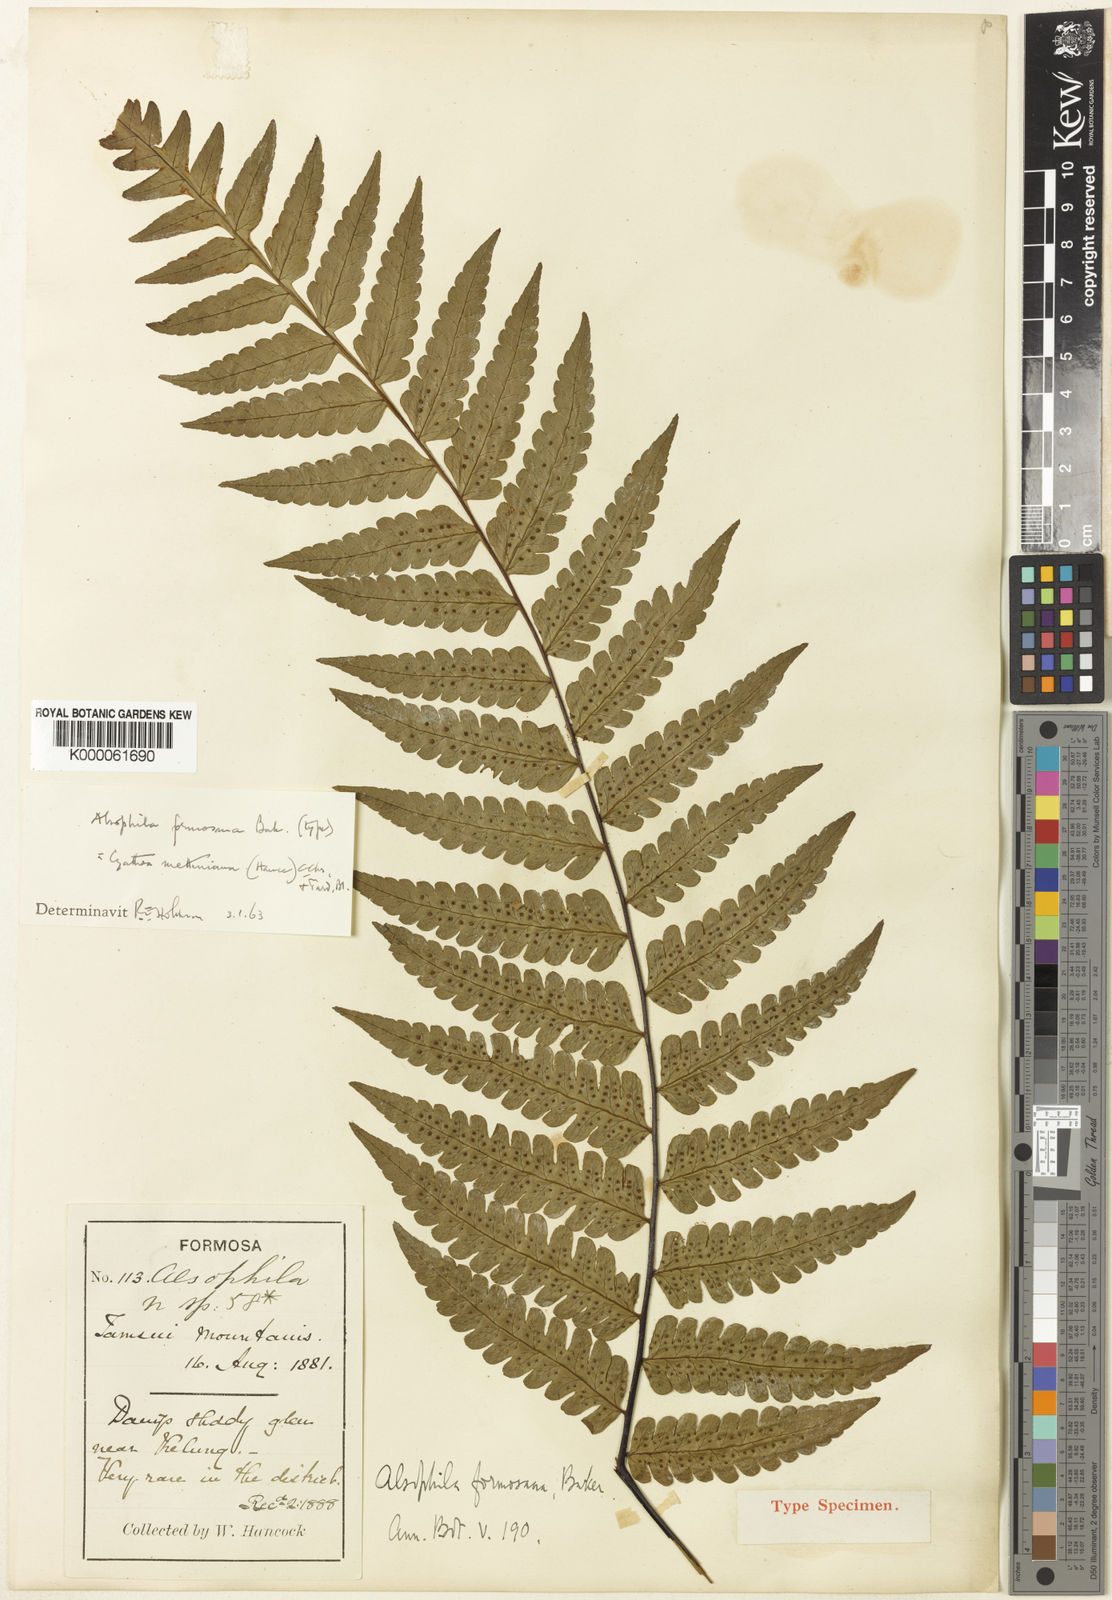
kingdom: Plantae
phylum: Tracheophyta
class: Polypodiopsida
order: Cyatheales
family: Cyatheaceae
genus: Gymnosphaera
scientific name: Gymnosphaera metteniana
